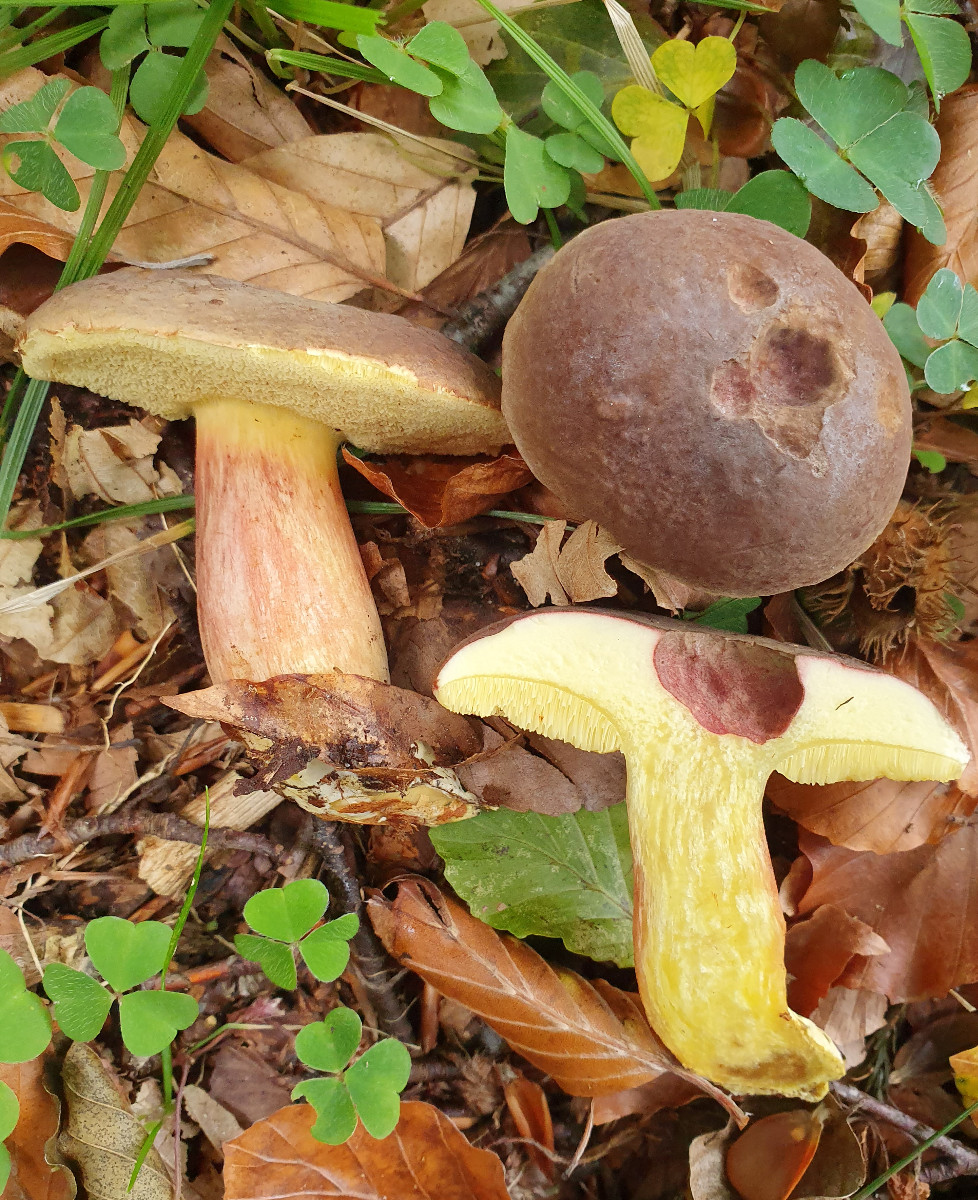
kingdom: Fungi
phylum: Basidiomycota
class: Agaricomycetes
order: Boletales
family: Boletaceae
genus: Xerocomellus
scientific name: Xerocomellus pruinatus
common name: dugget rørhat
